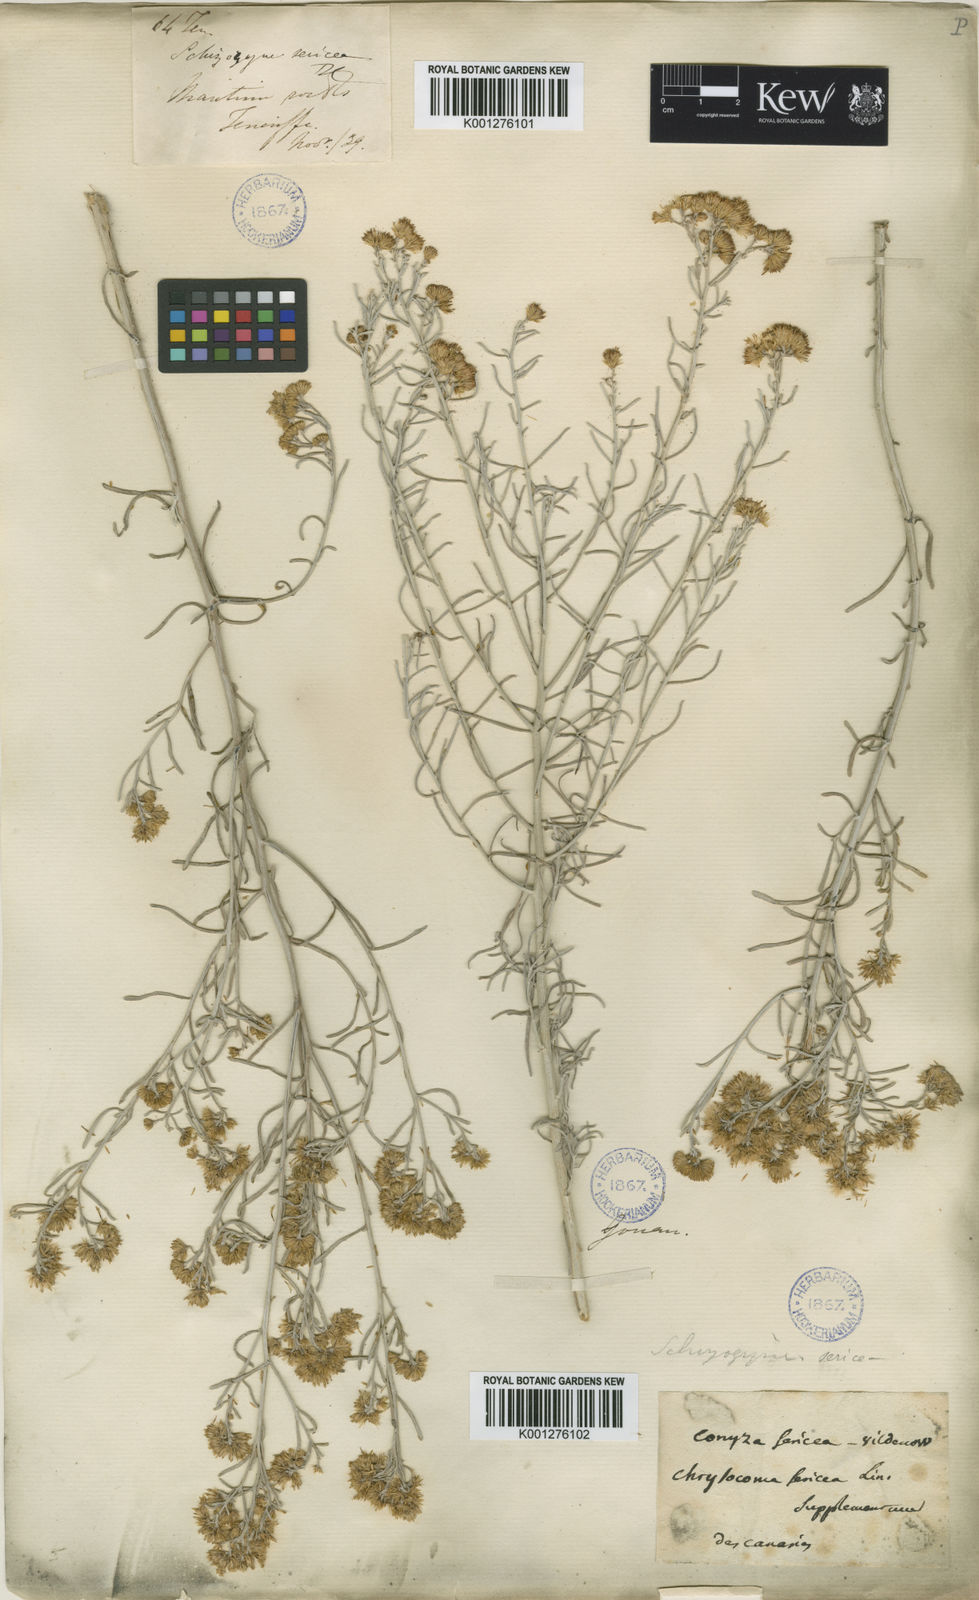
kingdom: Plantae
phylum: Tracheophyta
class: Magnoliopsida
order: Asterales
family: Asteraceae
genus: Schizogyne
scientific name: Schizogyne sericea
